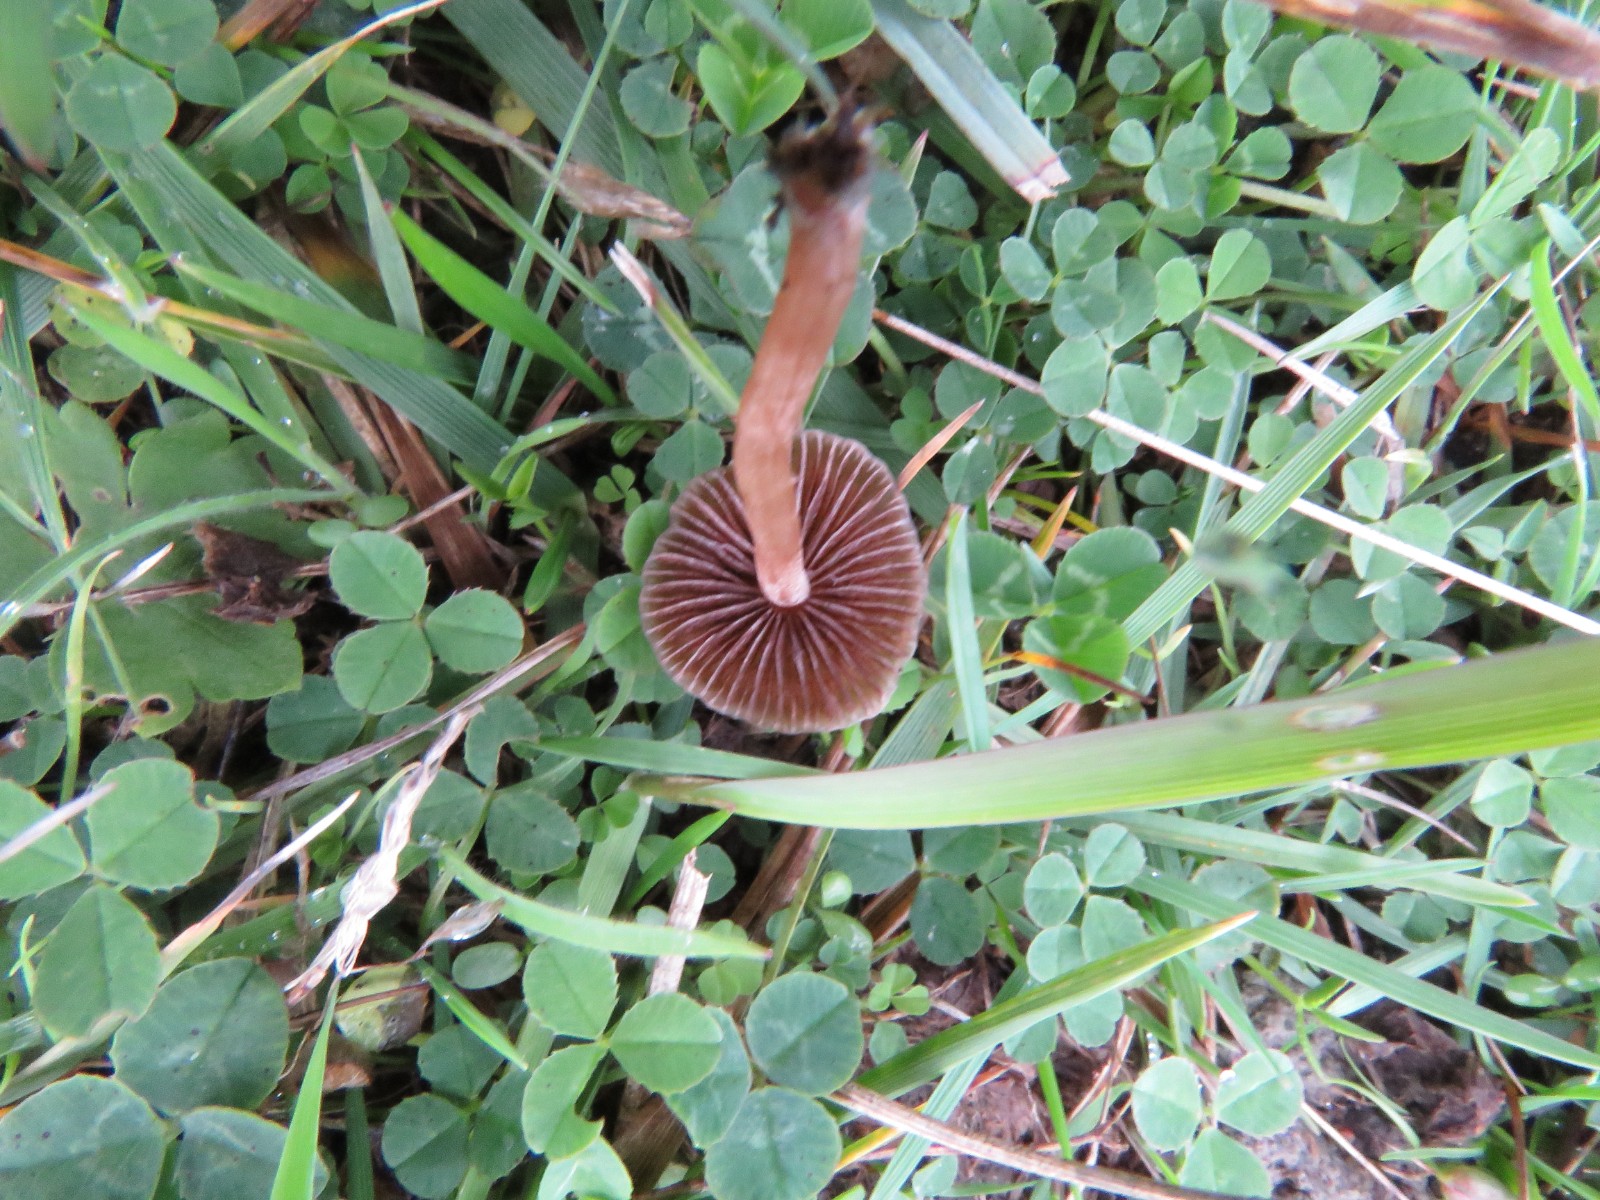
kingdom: Fungi
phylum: Basidiomycota
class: Agaricomycetes
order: Agaricales
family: Bolbitiaceae
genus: Panaeolina
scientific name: Panaeolina foenisecii
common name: høslætsvamp
